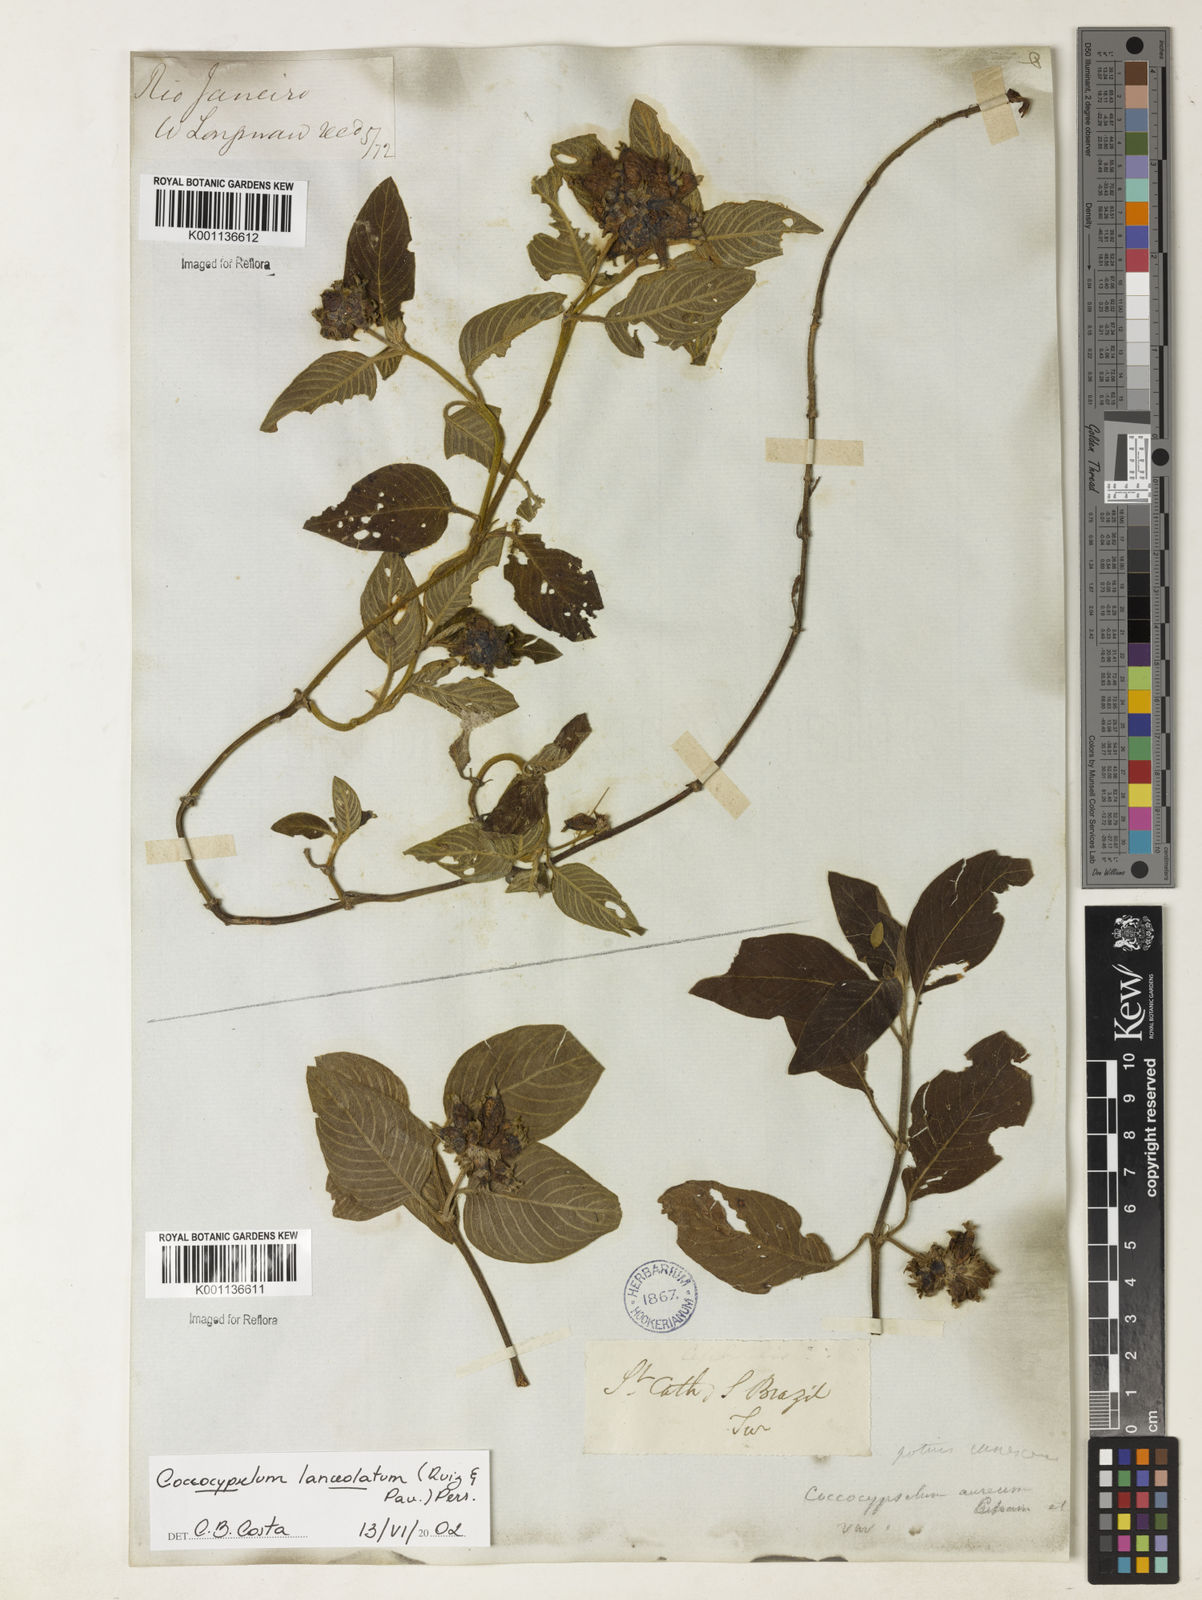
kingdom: Plantae
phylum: Tracheophyta
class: Magnoliopsida
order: Gentianales
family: Rubiaceae
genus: Coccocypselum
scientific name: Coccocypselum lanceolatum
